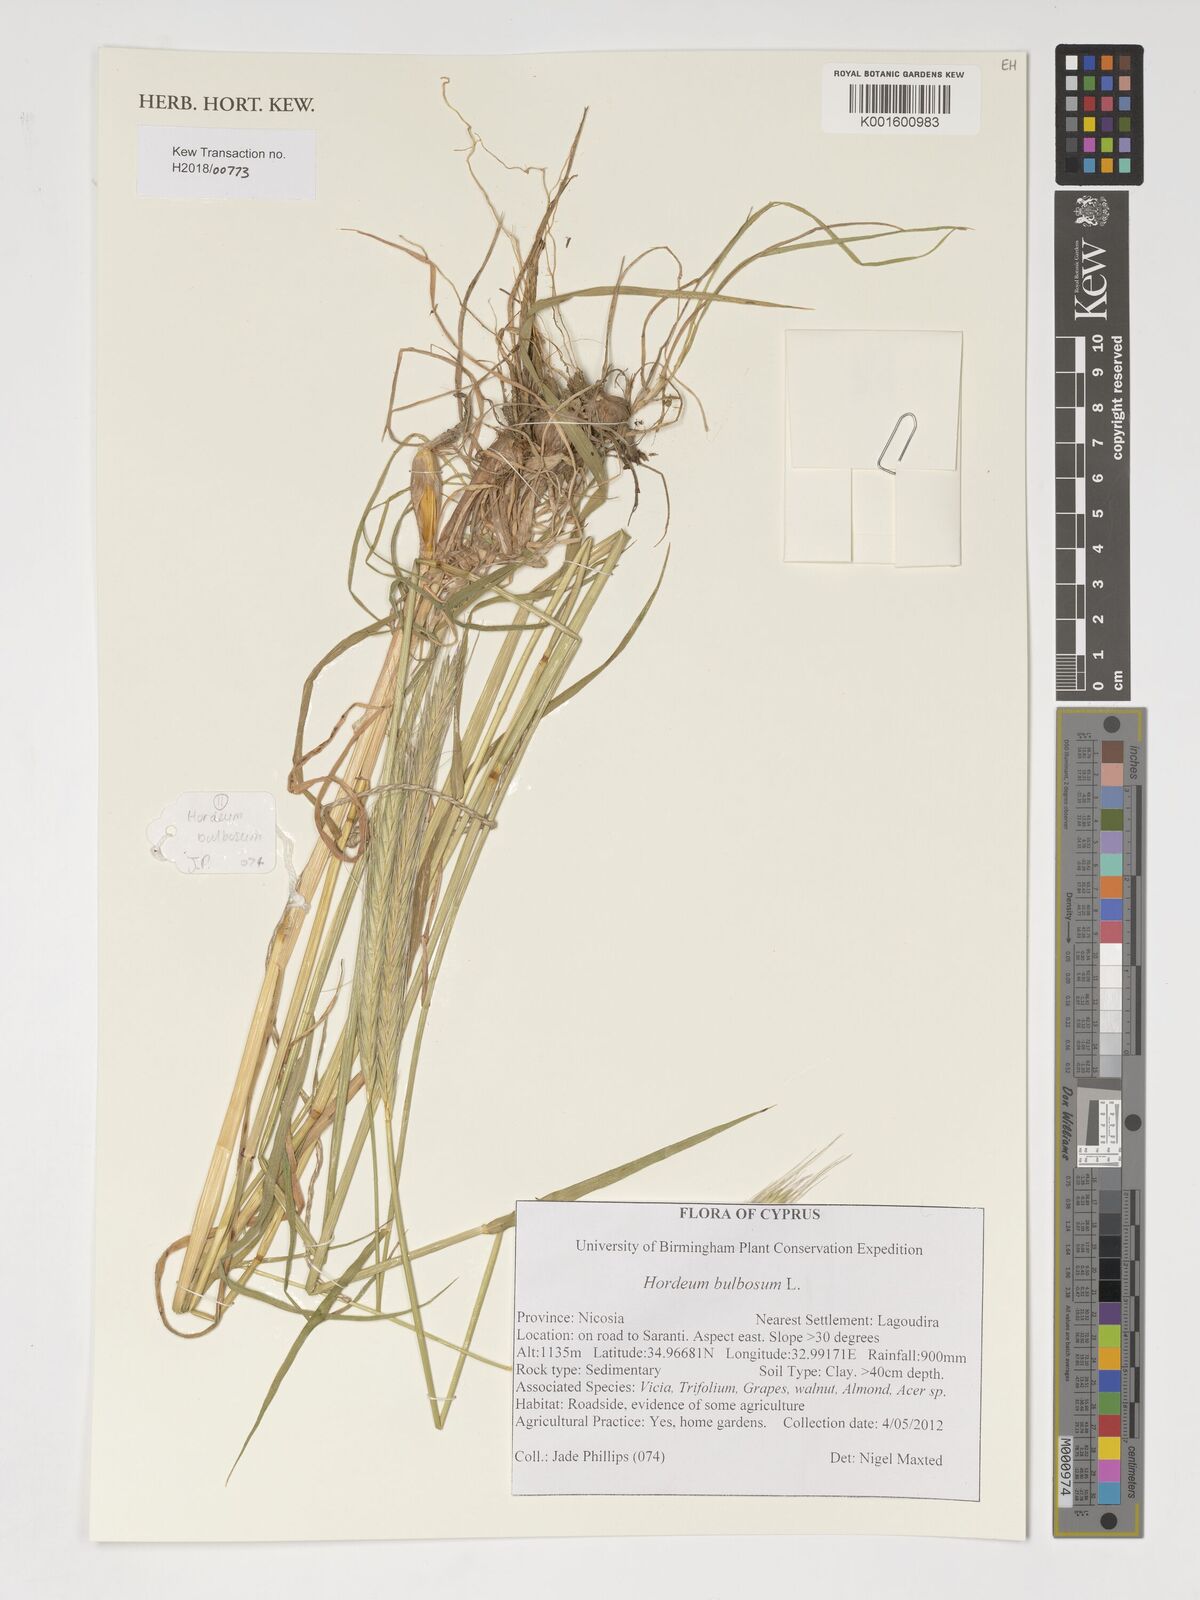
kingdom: Plantae
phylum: Tracheophyta
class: Liliopsida
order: Poales
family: Poaceae
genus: Triticum
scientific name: Triticum aestivum
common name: Common wheat
